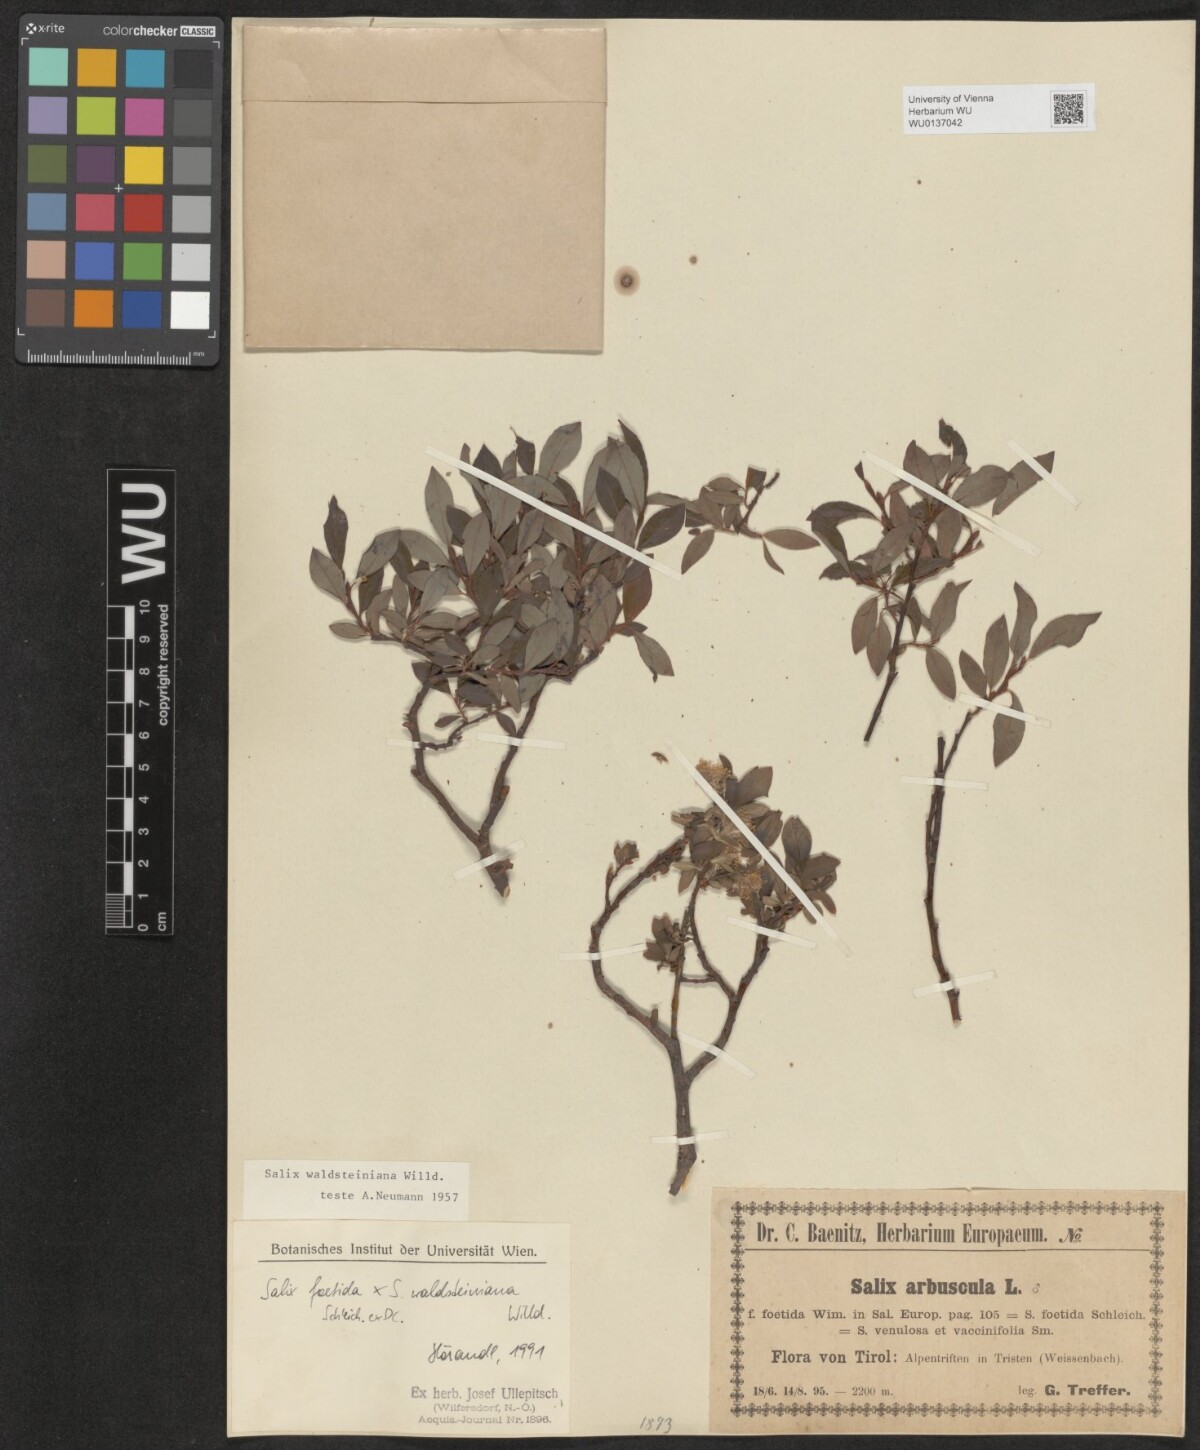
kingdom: Plantae
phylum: Tracheophyta
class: Magnoliopsida
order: Malpighiales
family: Salicaceae
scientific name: Salicaceae
